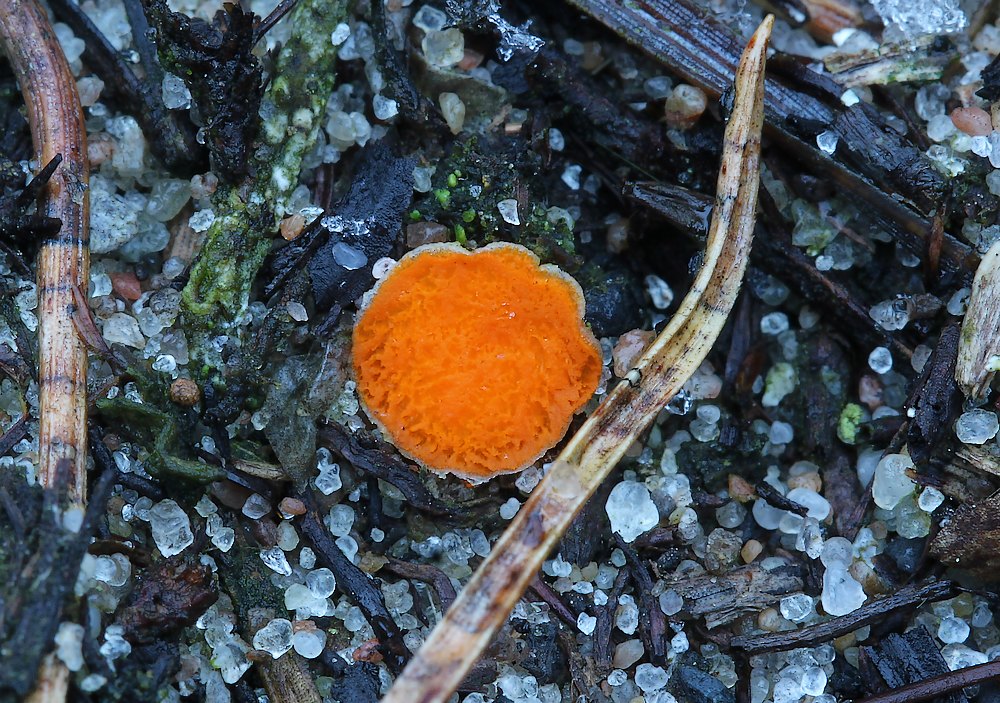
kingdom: Fungi
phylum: Ascomycota
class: Pezizomycetes
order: Pezizales
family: Pyronemataceae
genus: Byssonectria
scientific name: Byssonectria terrestris
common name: hjortebæger
